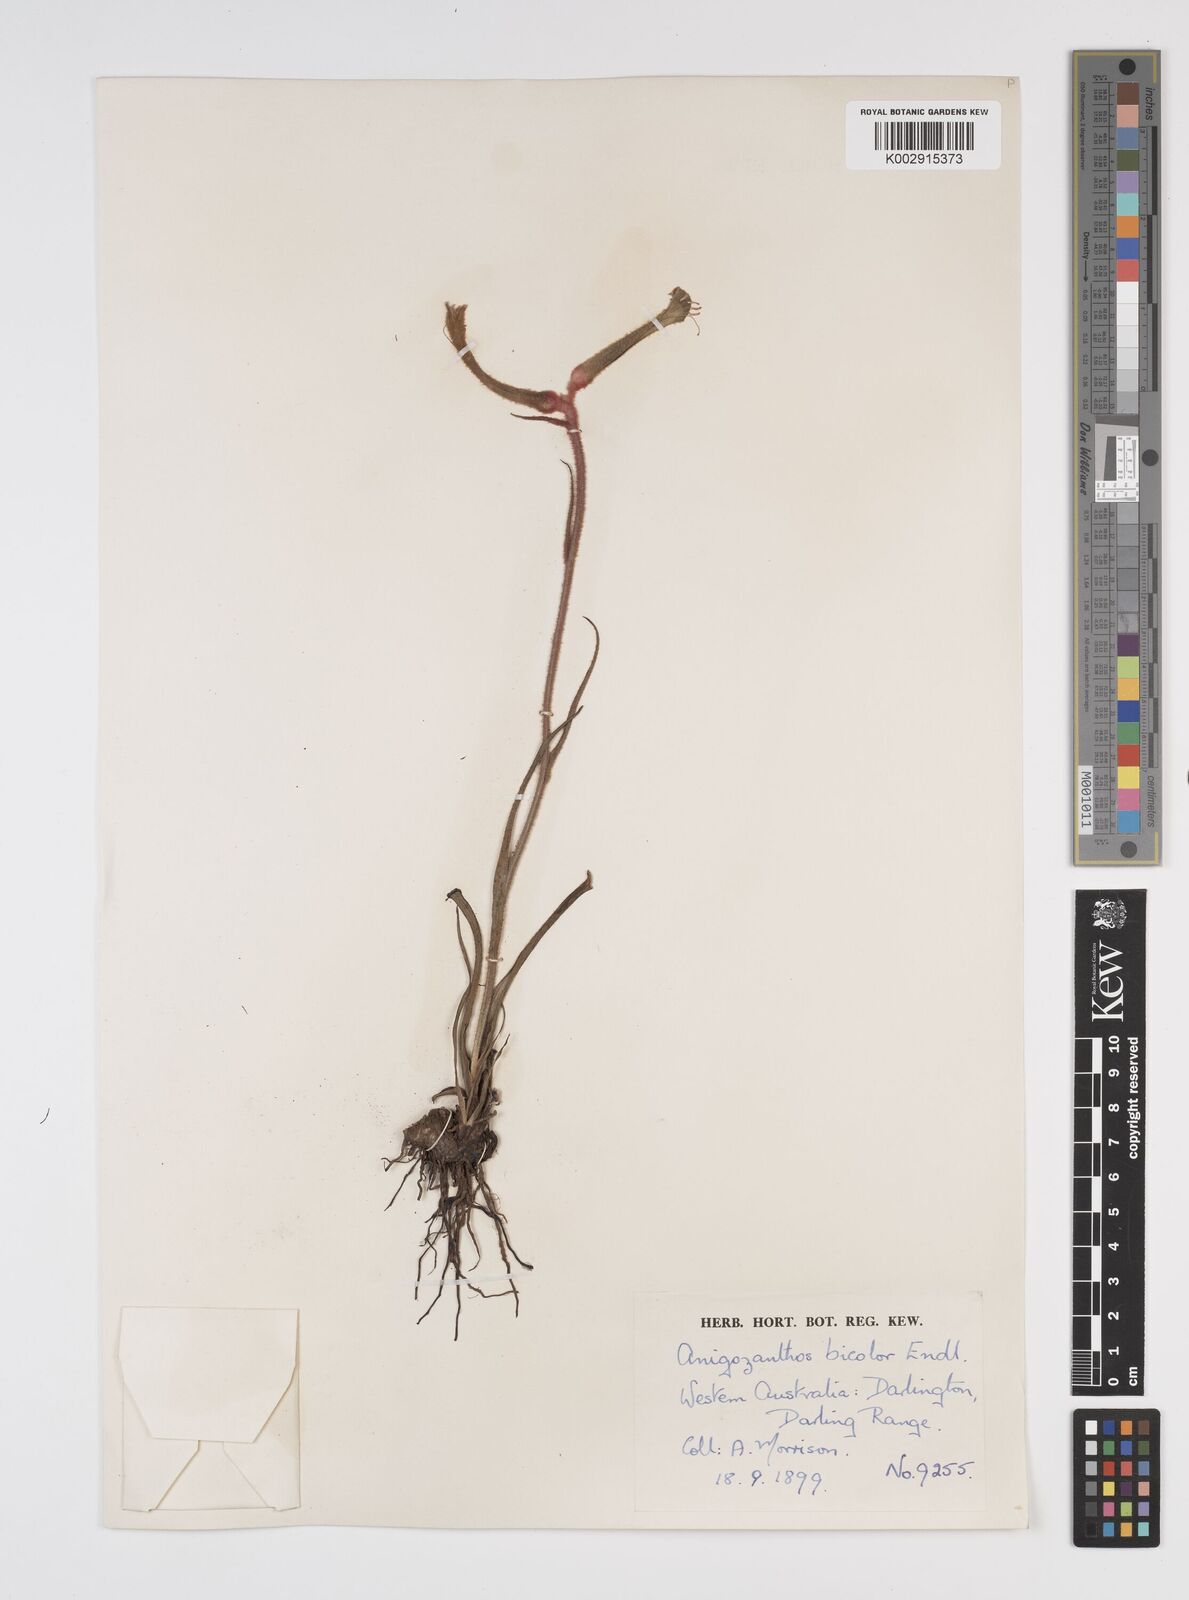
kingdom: Plantae
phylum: Tracheophyta
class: Liliopsida
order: Commelinales
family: Haemodoraceae
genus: Anigozanthos
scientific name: Anigozanthos bicolor
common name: Little kangaroo-paw
